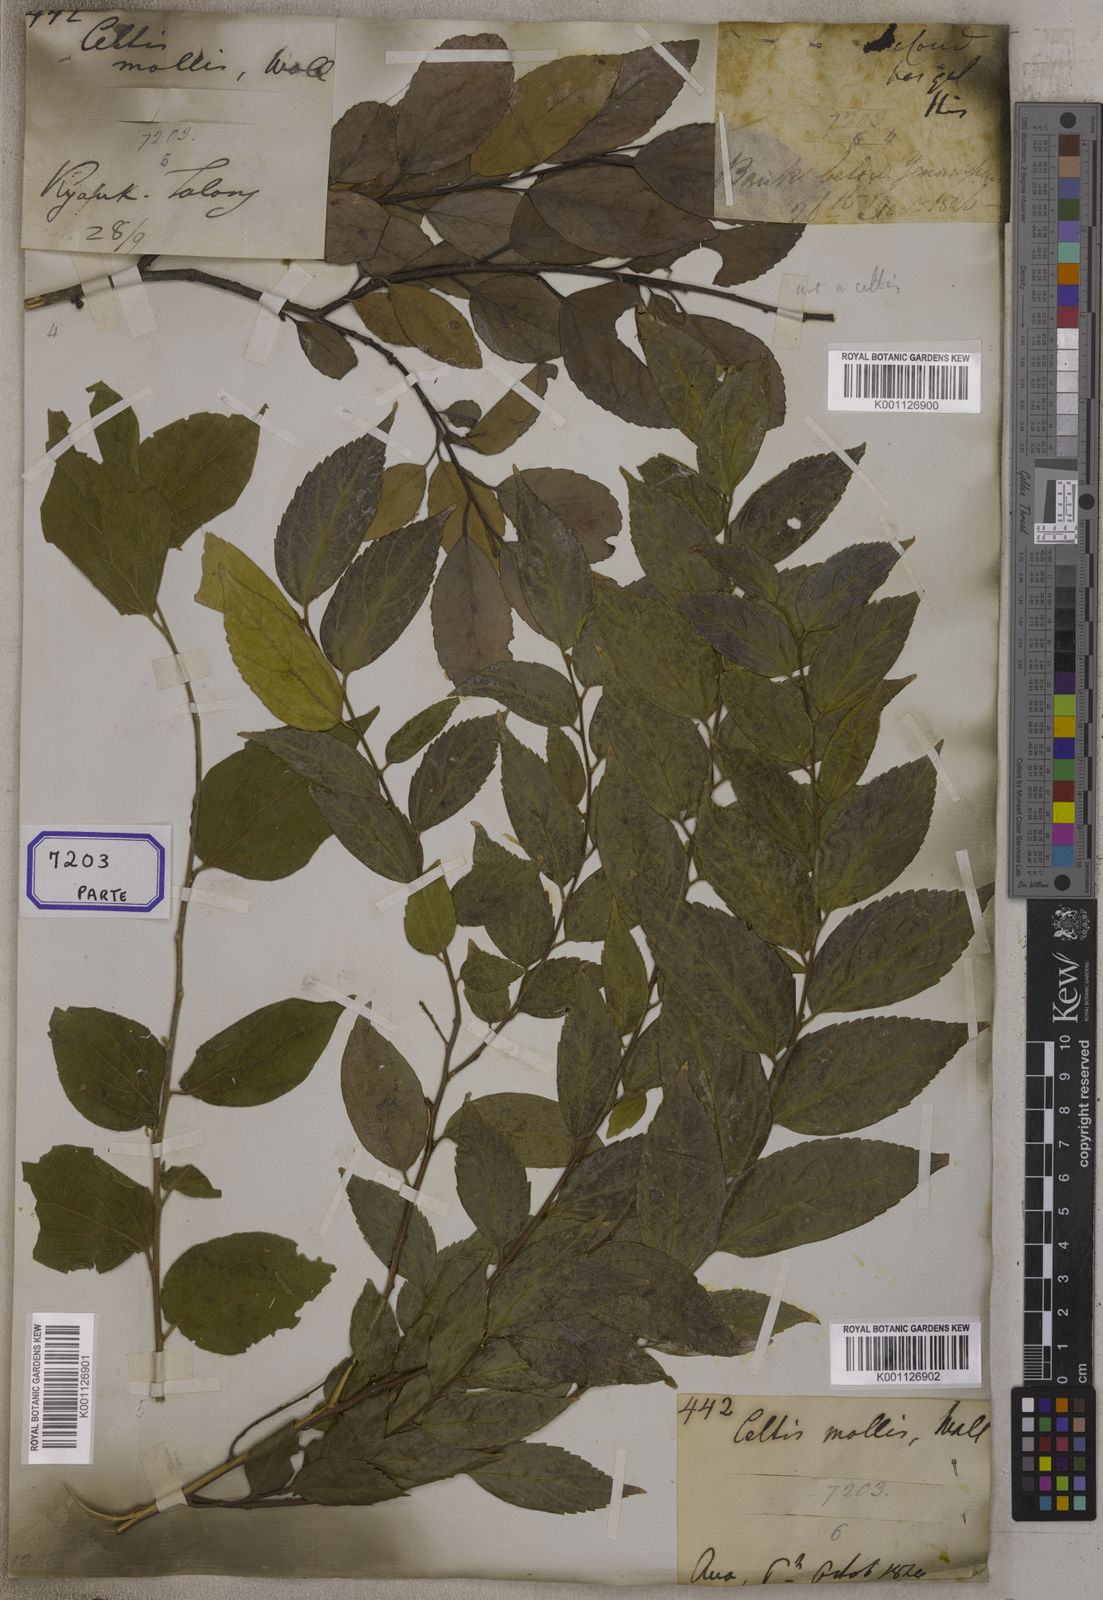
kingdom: Plantae
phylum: Tracheophyta
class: Magnoliopsida
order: Cardiopteridales
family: Stemonuraceae
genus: Gomphandra
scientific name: Gomphandra
